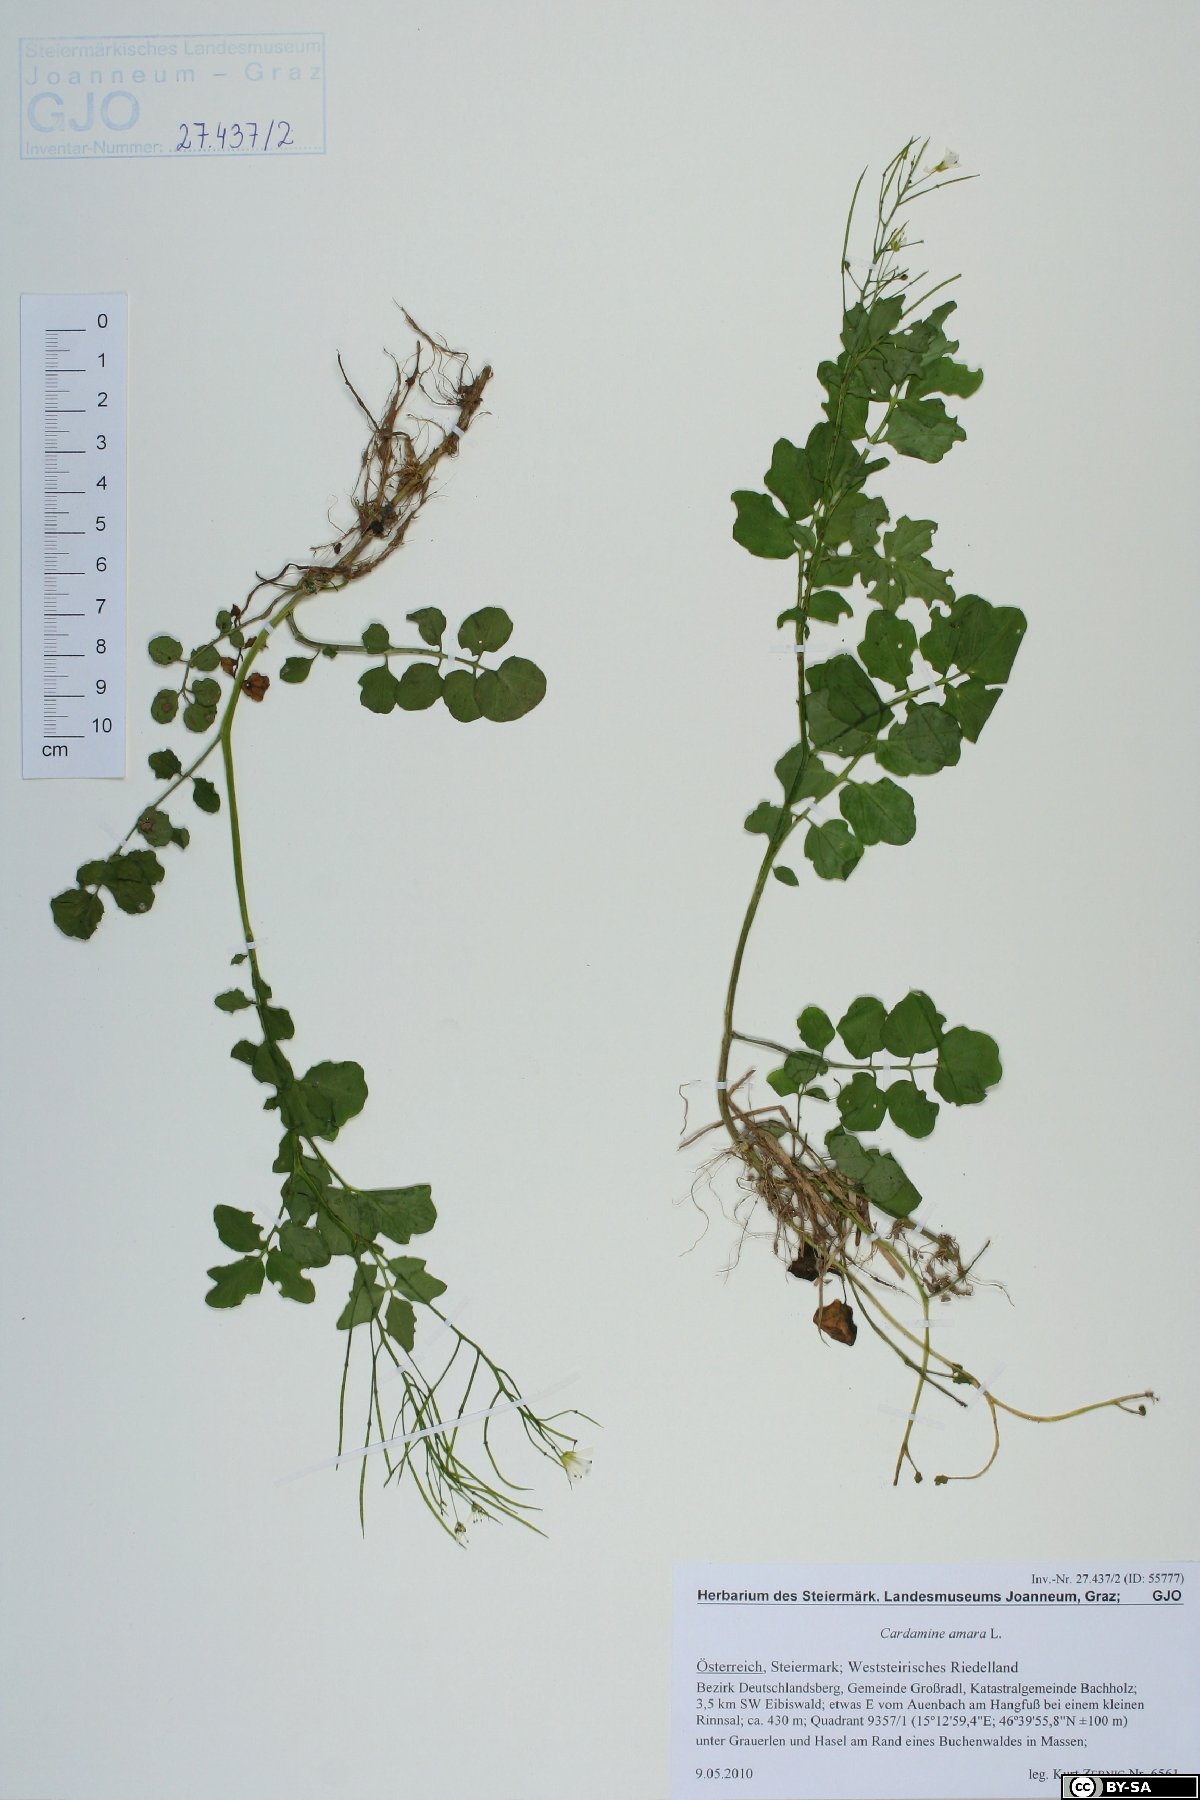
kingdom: Plantae
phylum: Tracheophyta
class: Magnoliopsida
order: Brassicales
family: Brassicaceae
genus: Cardamine
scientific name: Cardamine amara
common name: Large bitter-cress
